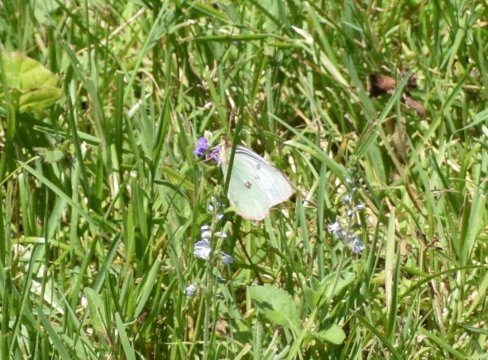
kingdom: Animalia
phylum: Arthropoda
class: Insecta
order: Lepidoptera
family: Pieridae
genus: Colias
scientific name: Colias philodice
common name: Clouded Sulphur
